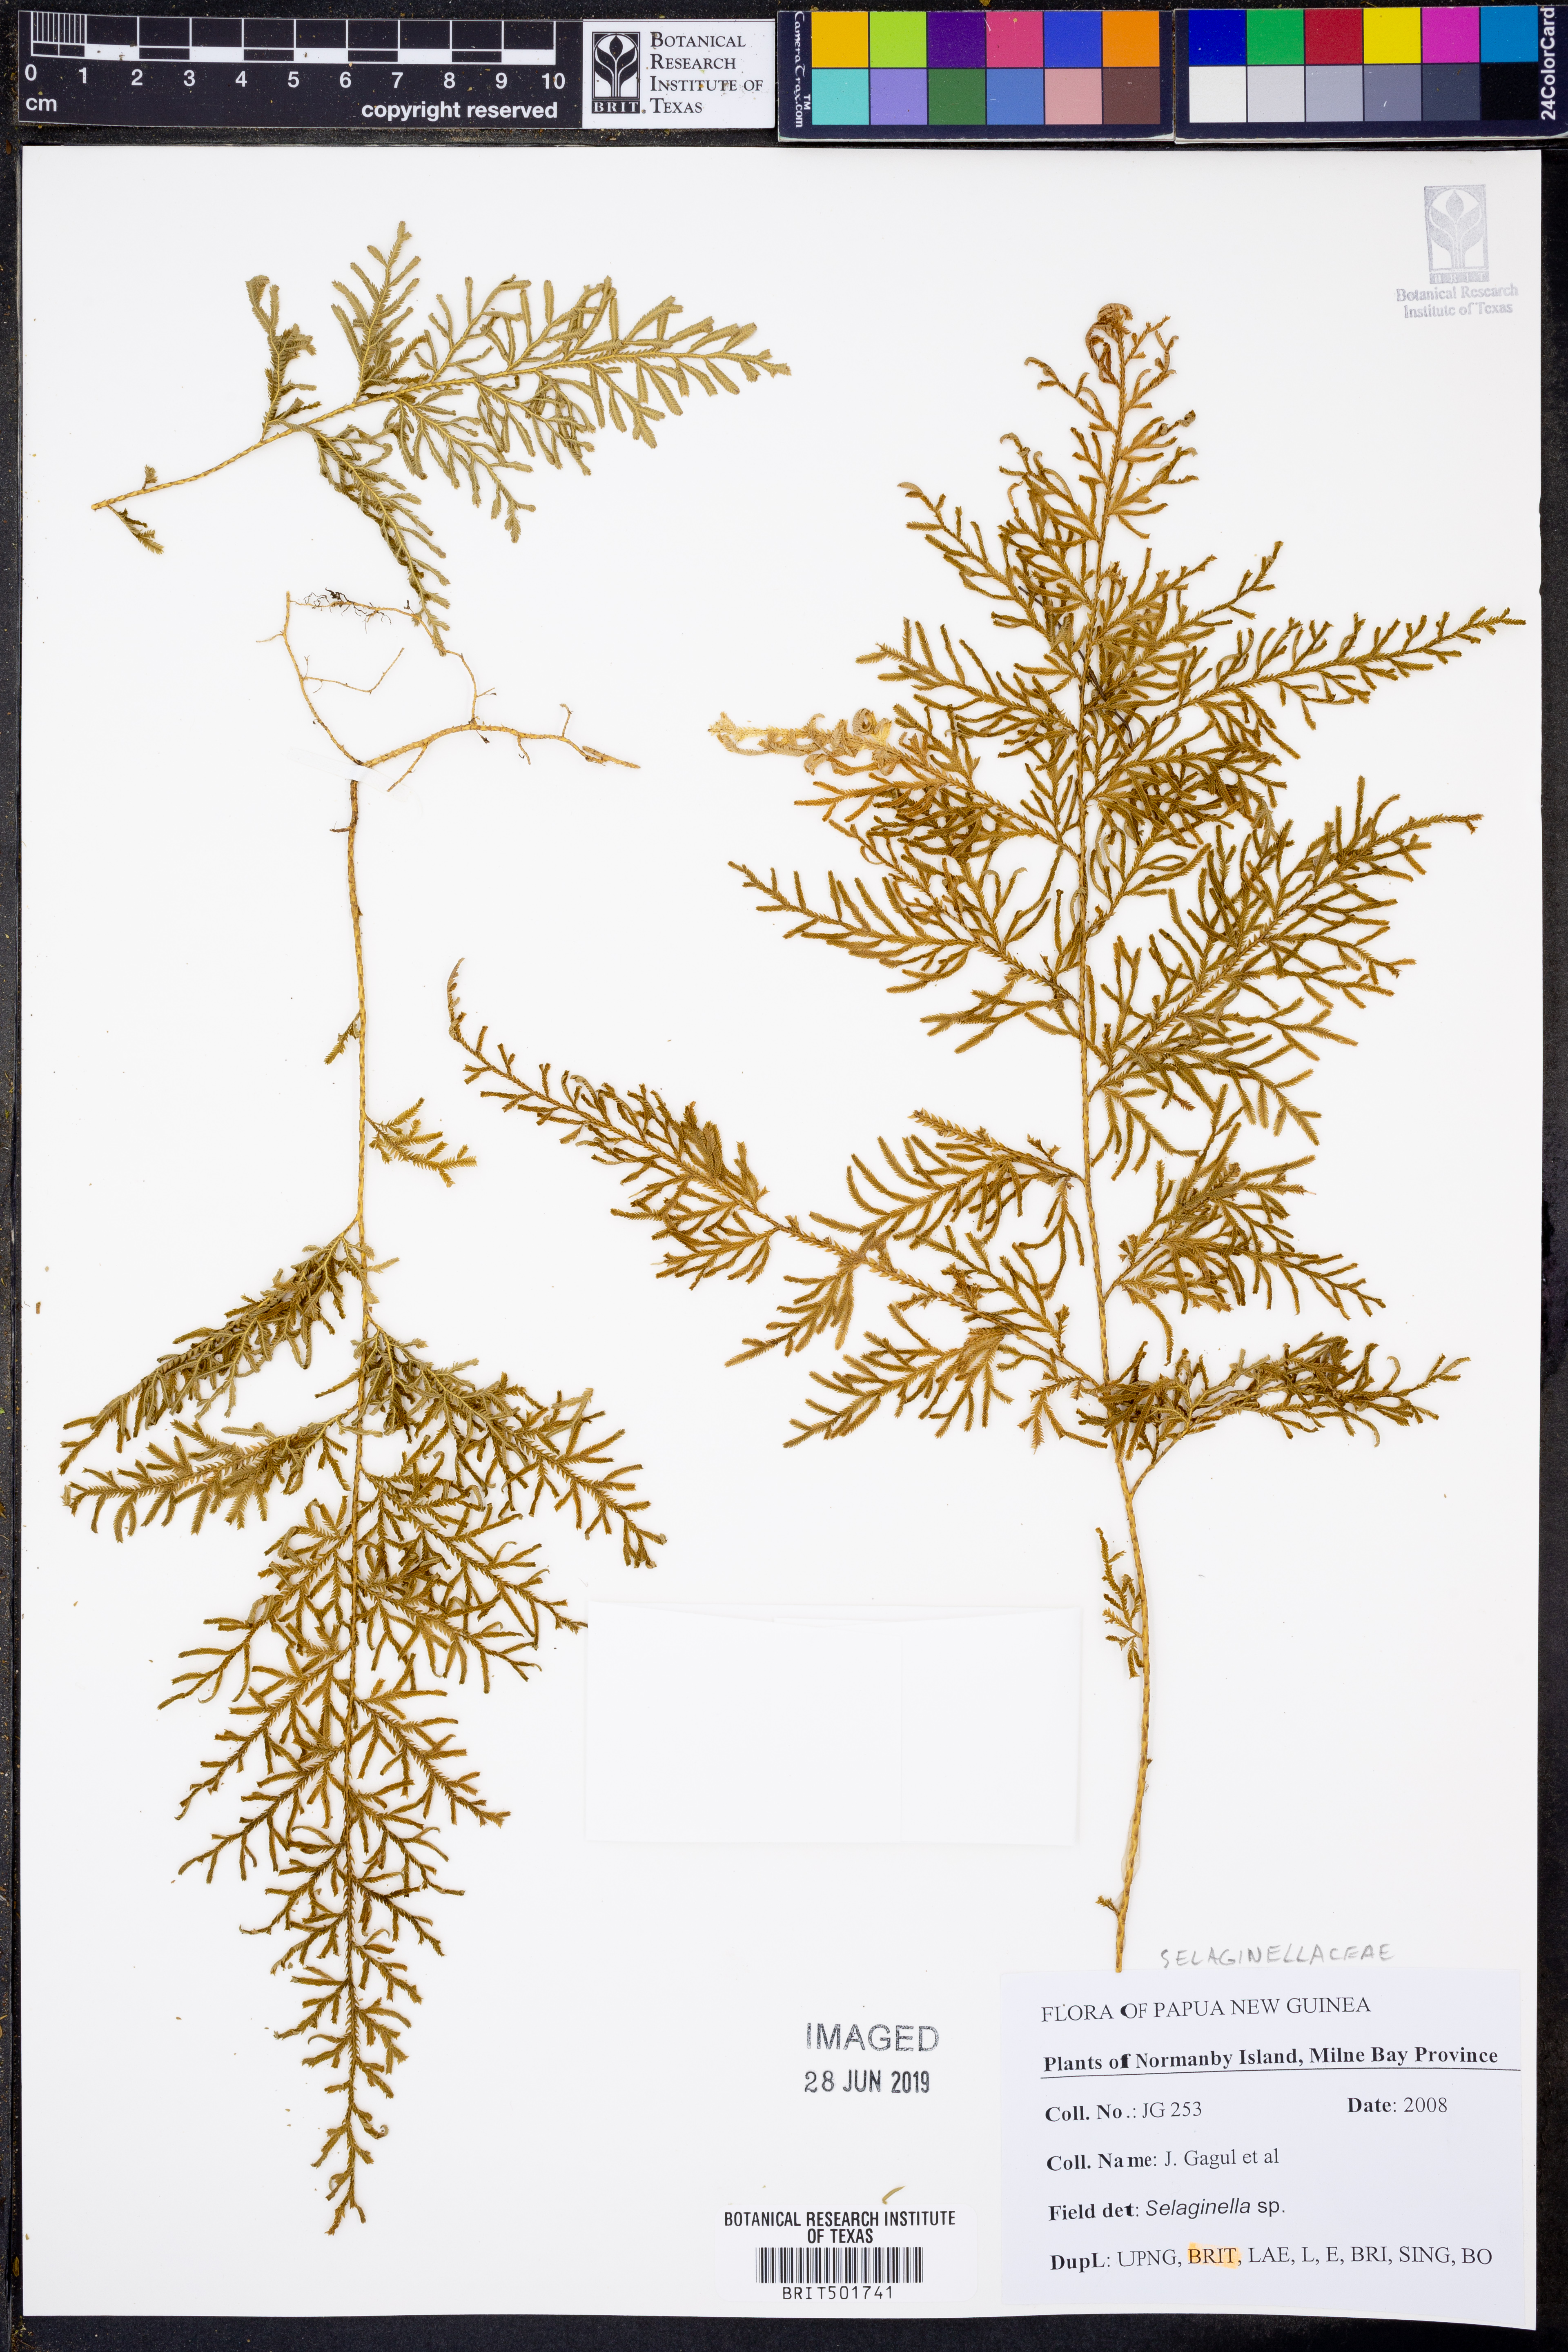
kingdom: Plantae
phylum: Tracheophyta
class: Lycopodiopsida
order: Selaginellales
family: Selaginellaceae
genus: Selaginella
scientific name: Selaginella
